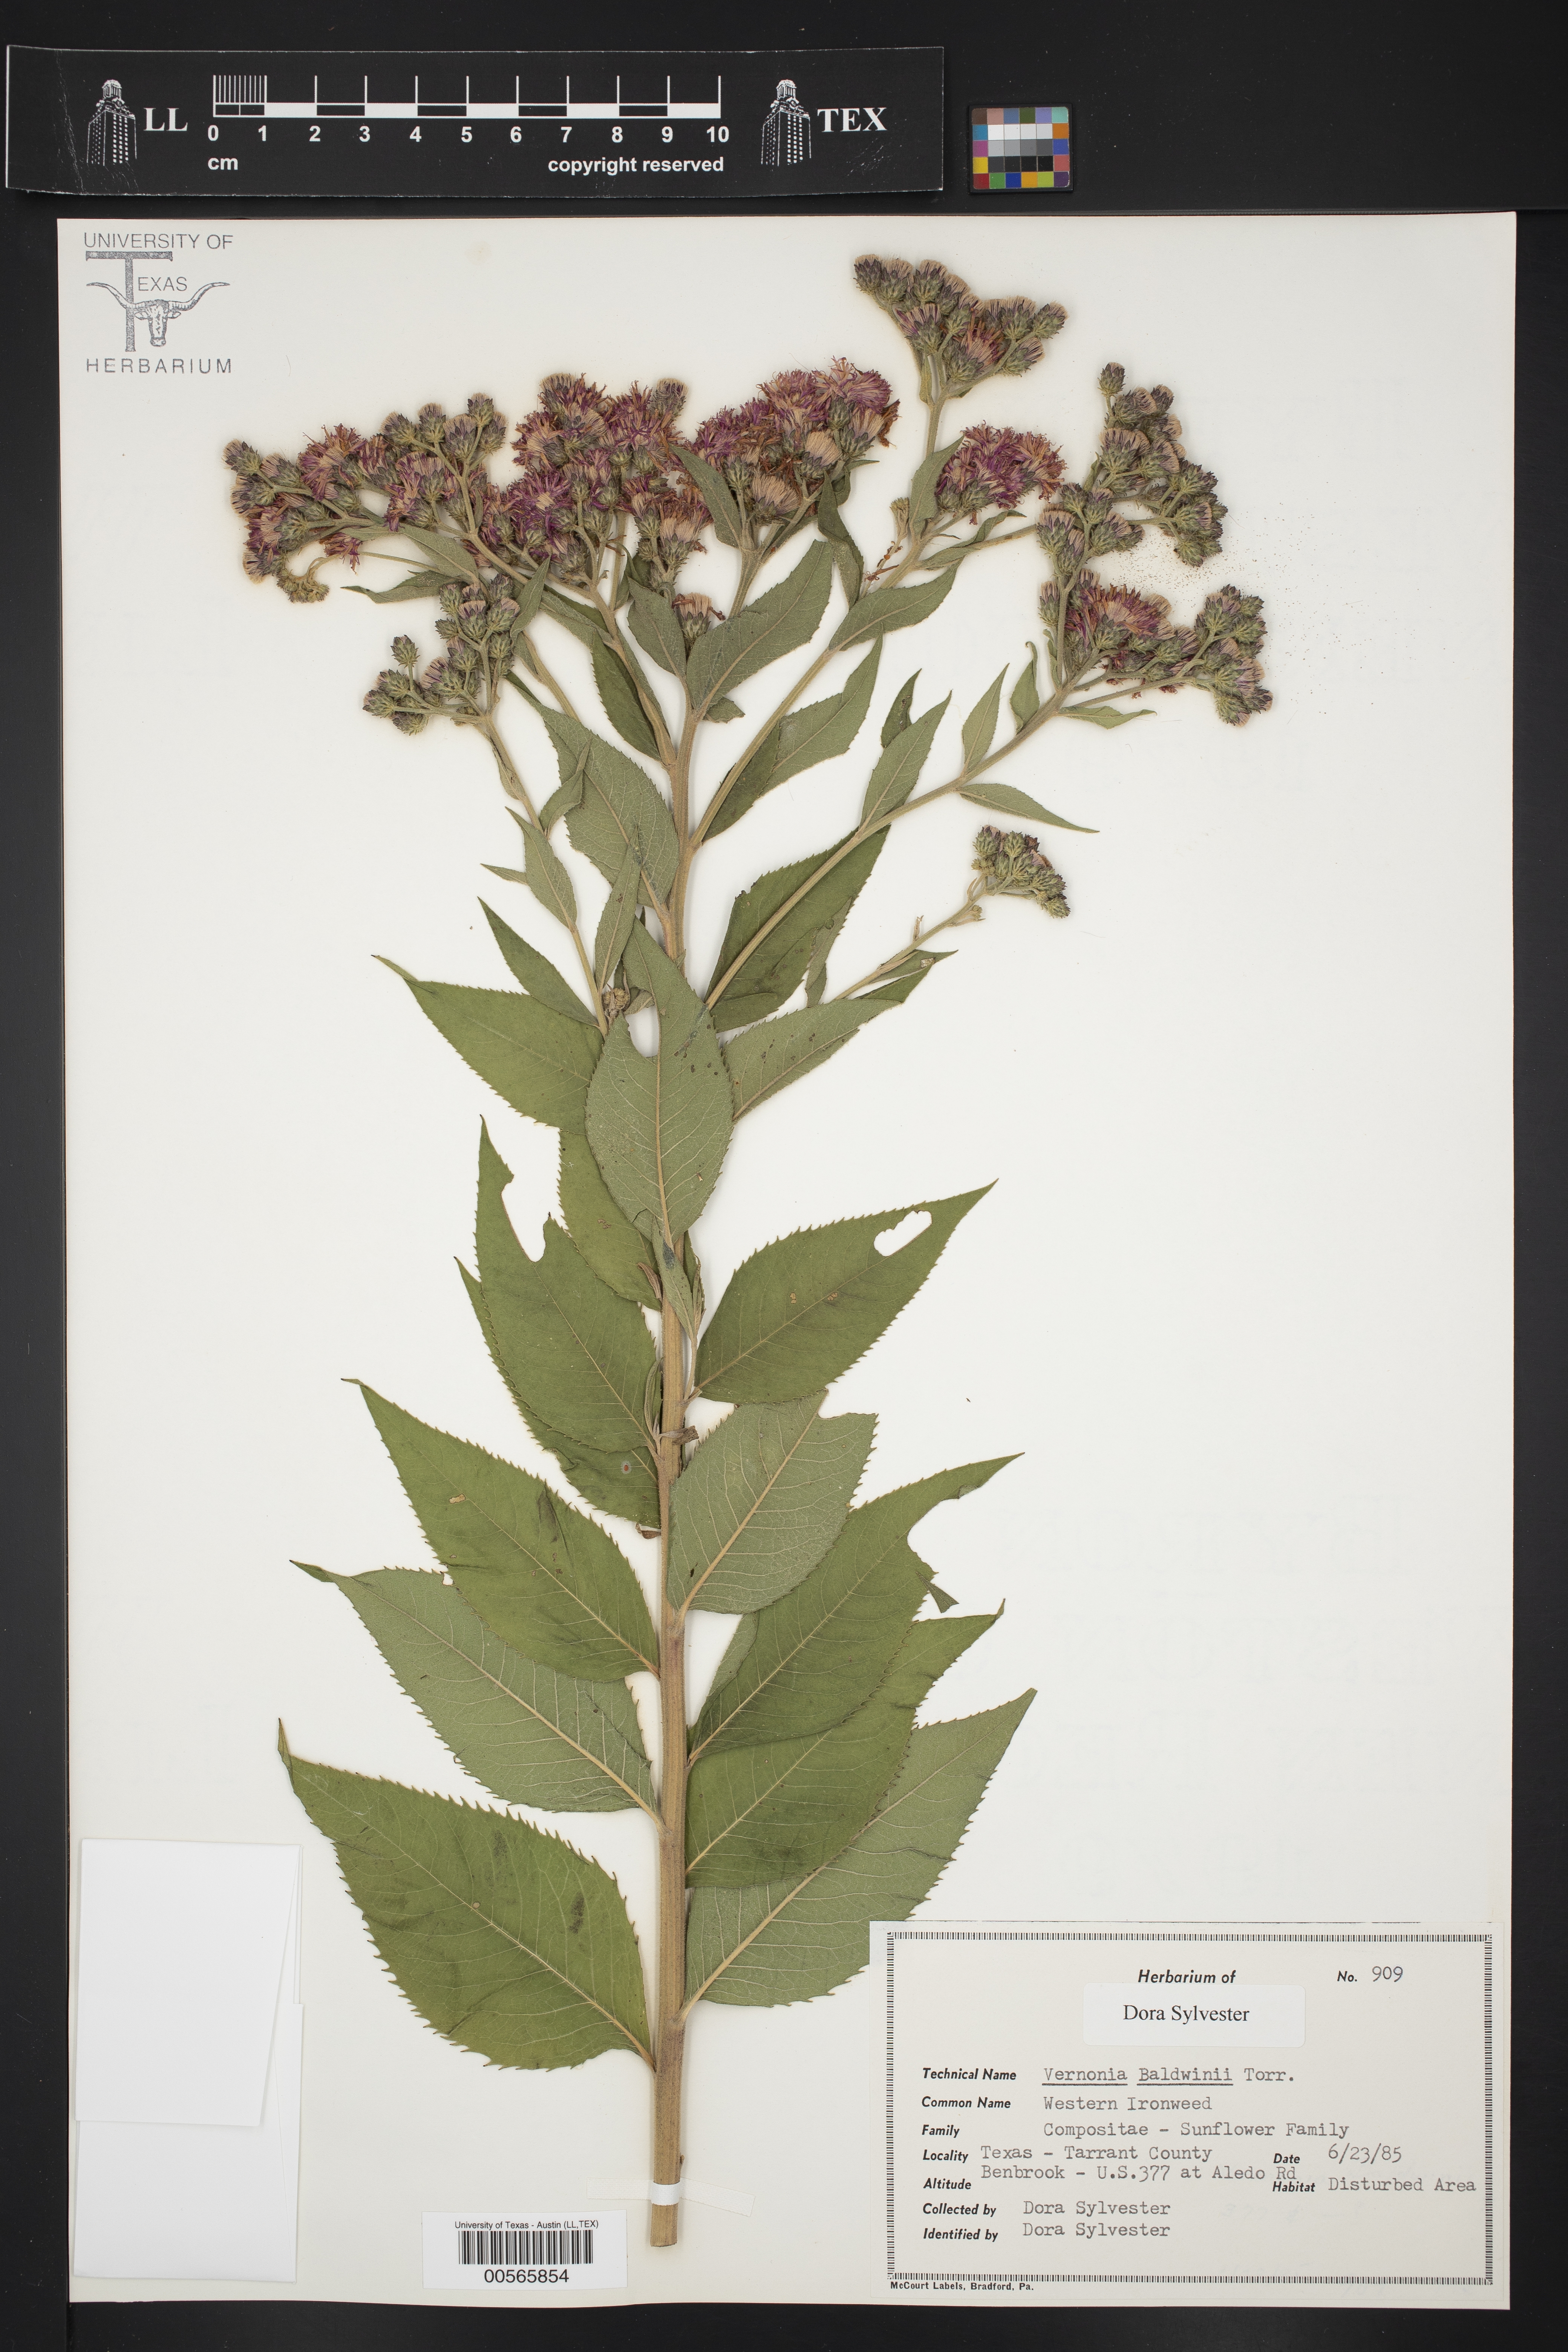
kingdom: Plantae
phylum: Tracheophyta
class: Magnoliopsida
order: Asterales
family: Asteraceae
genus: Vernonia
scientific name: Vernonia baldwinii
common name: Western ironweed
